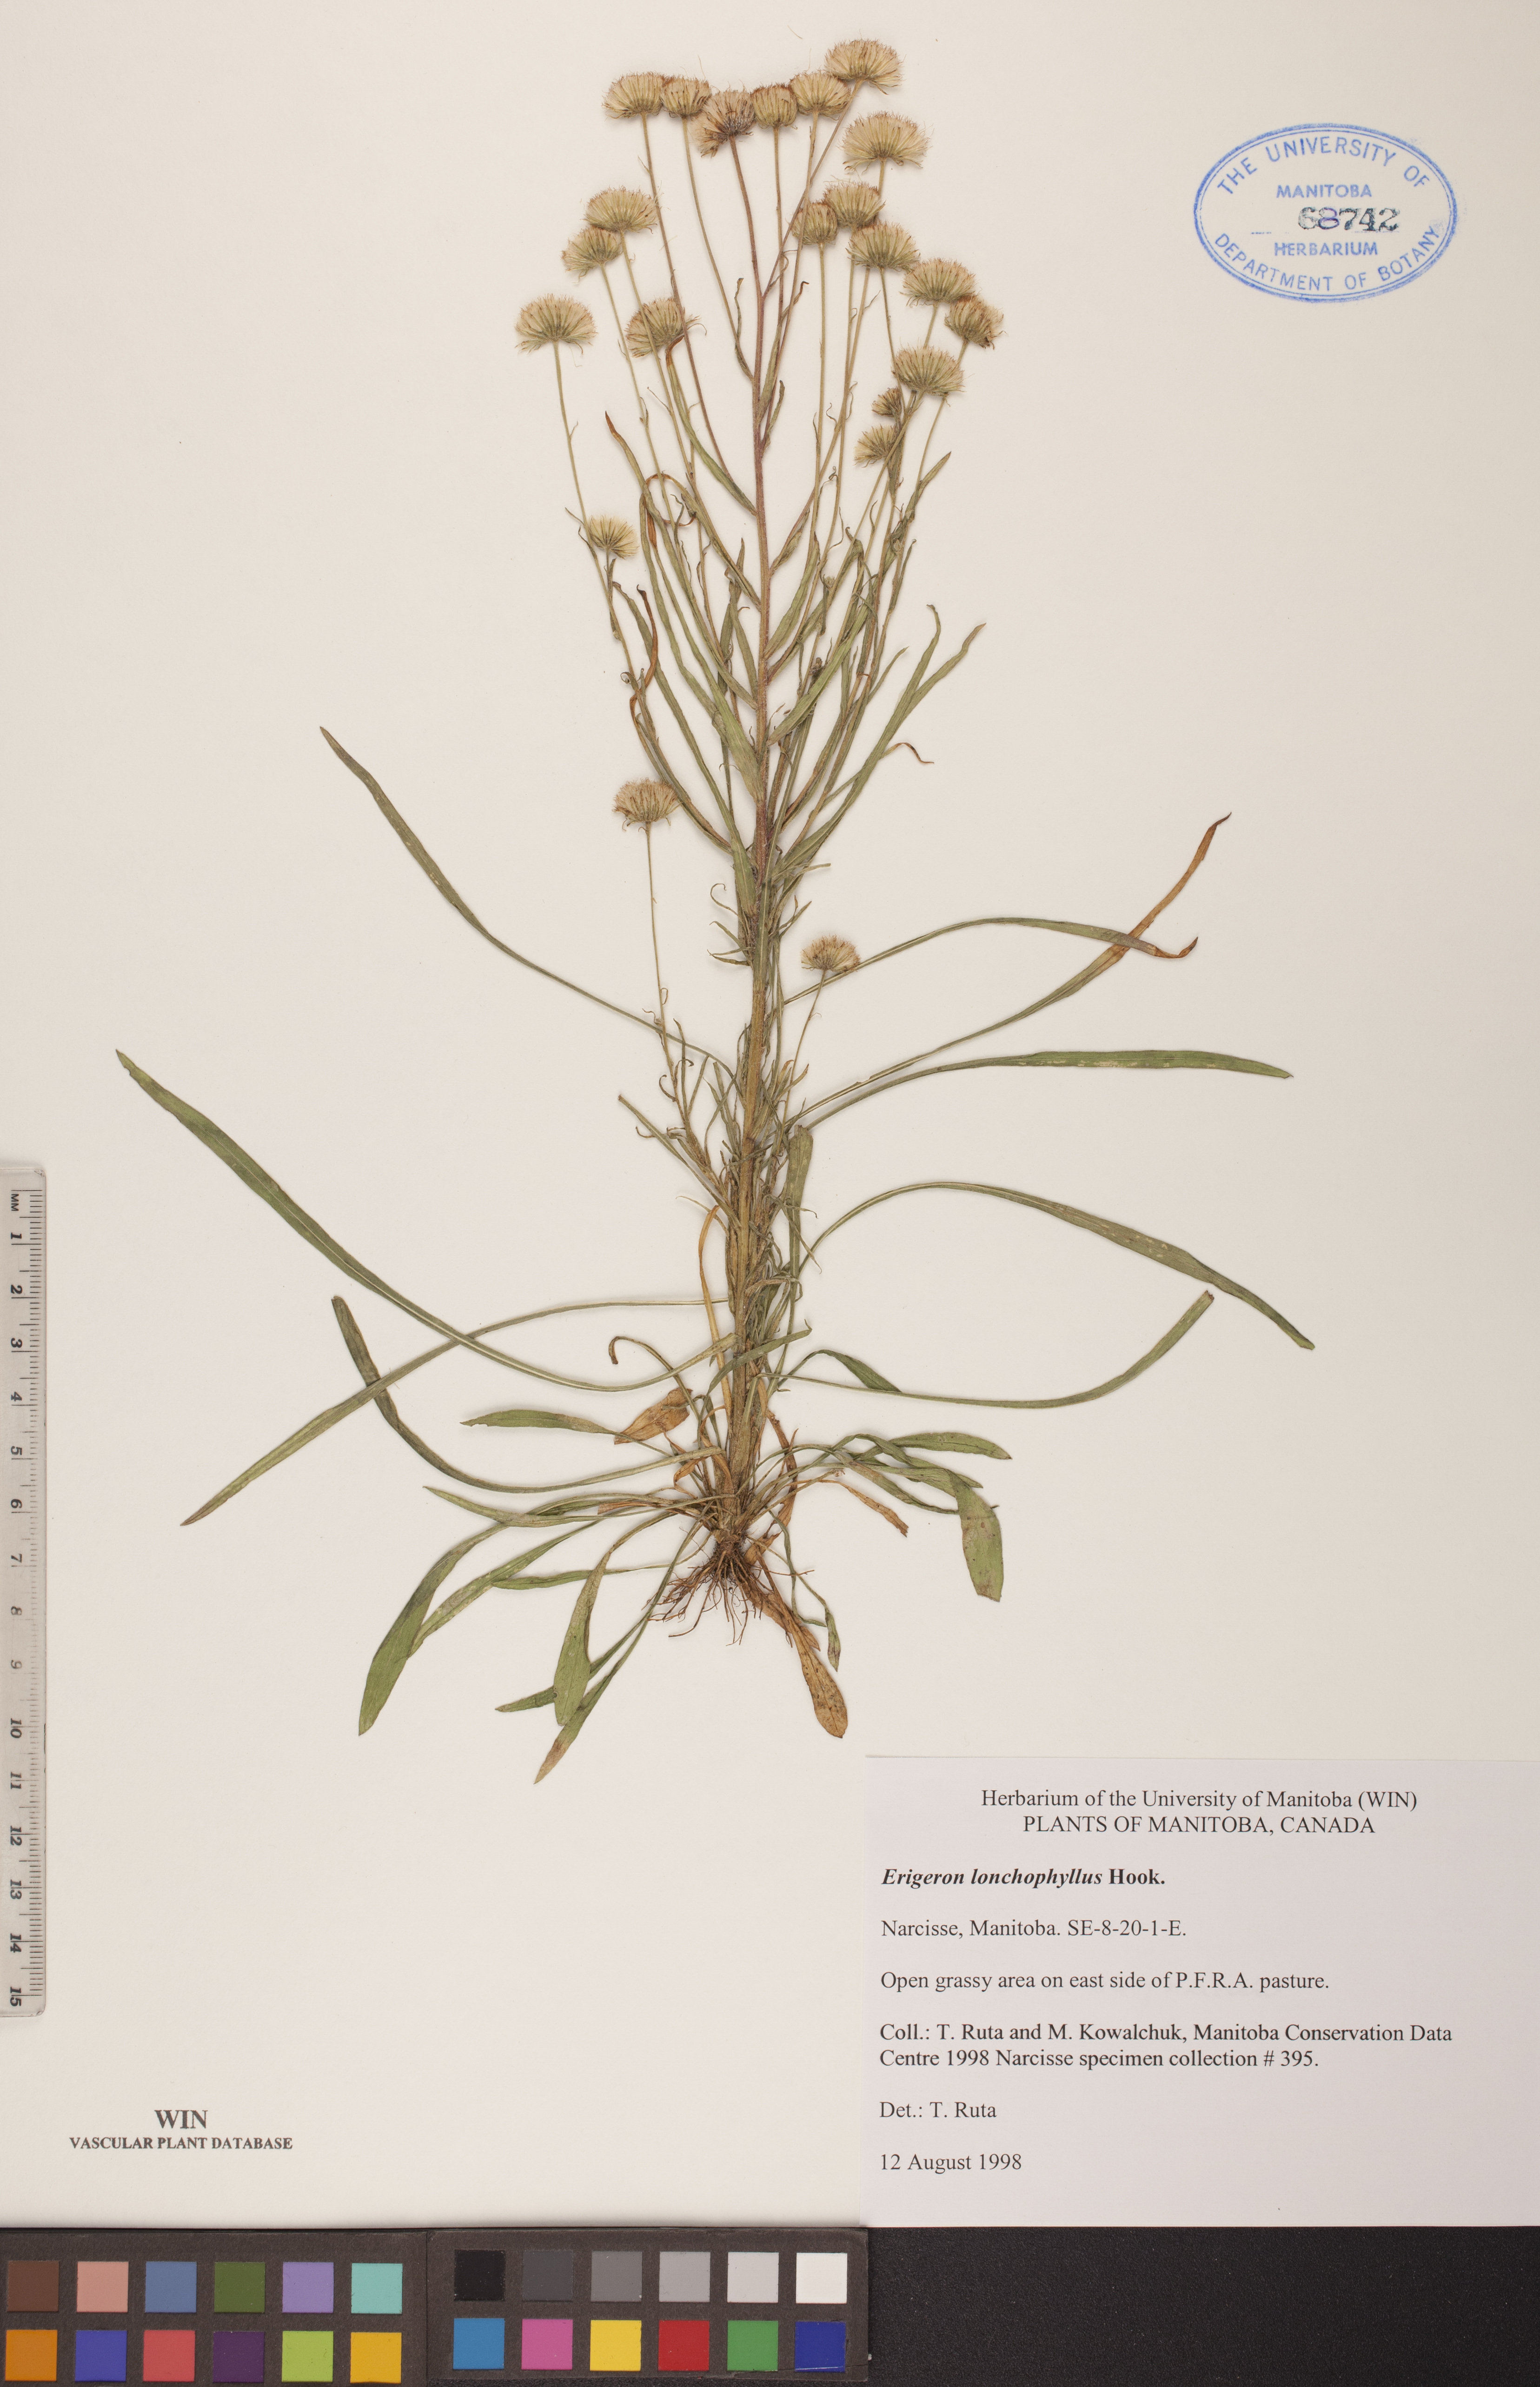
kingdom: Plantae
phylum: Tracheophyta
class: Magnoliopsida
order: Asterales
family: Asteraceae
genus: Erigeron
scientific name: Erigeron lonchophyllus
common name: Short-ray fleabane
